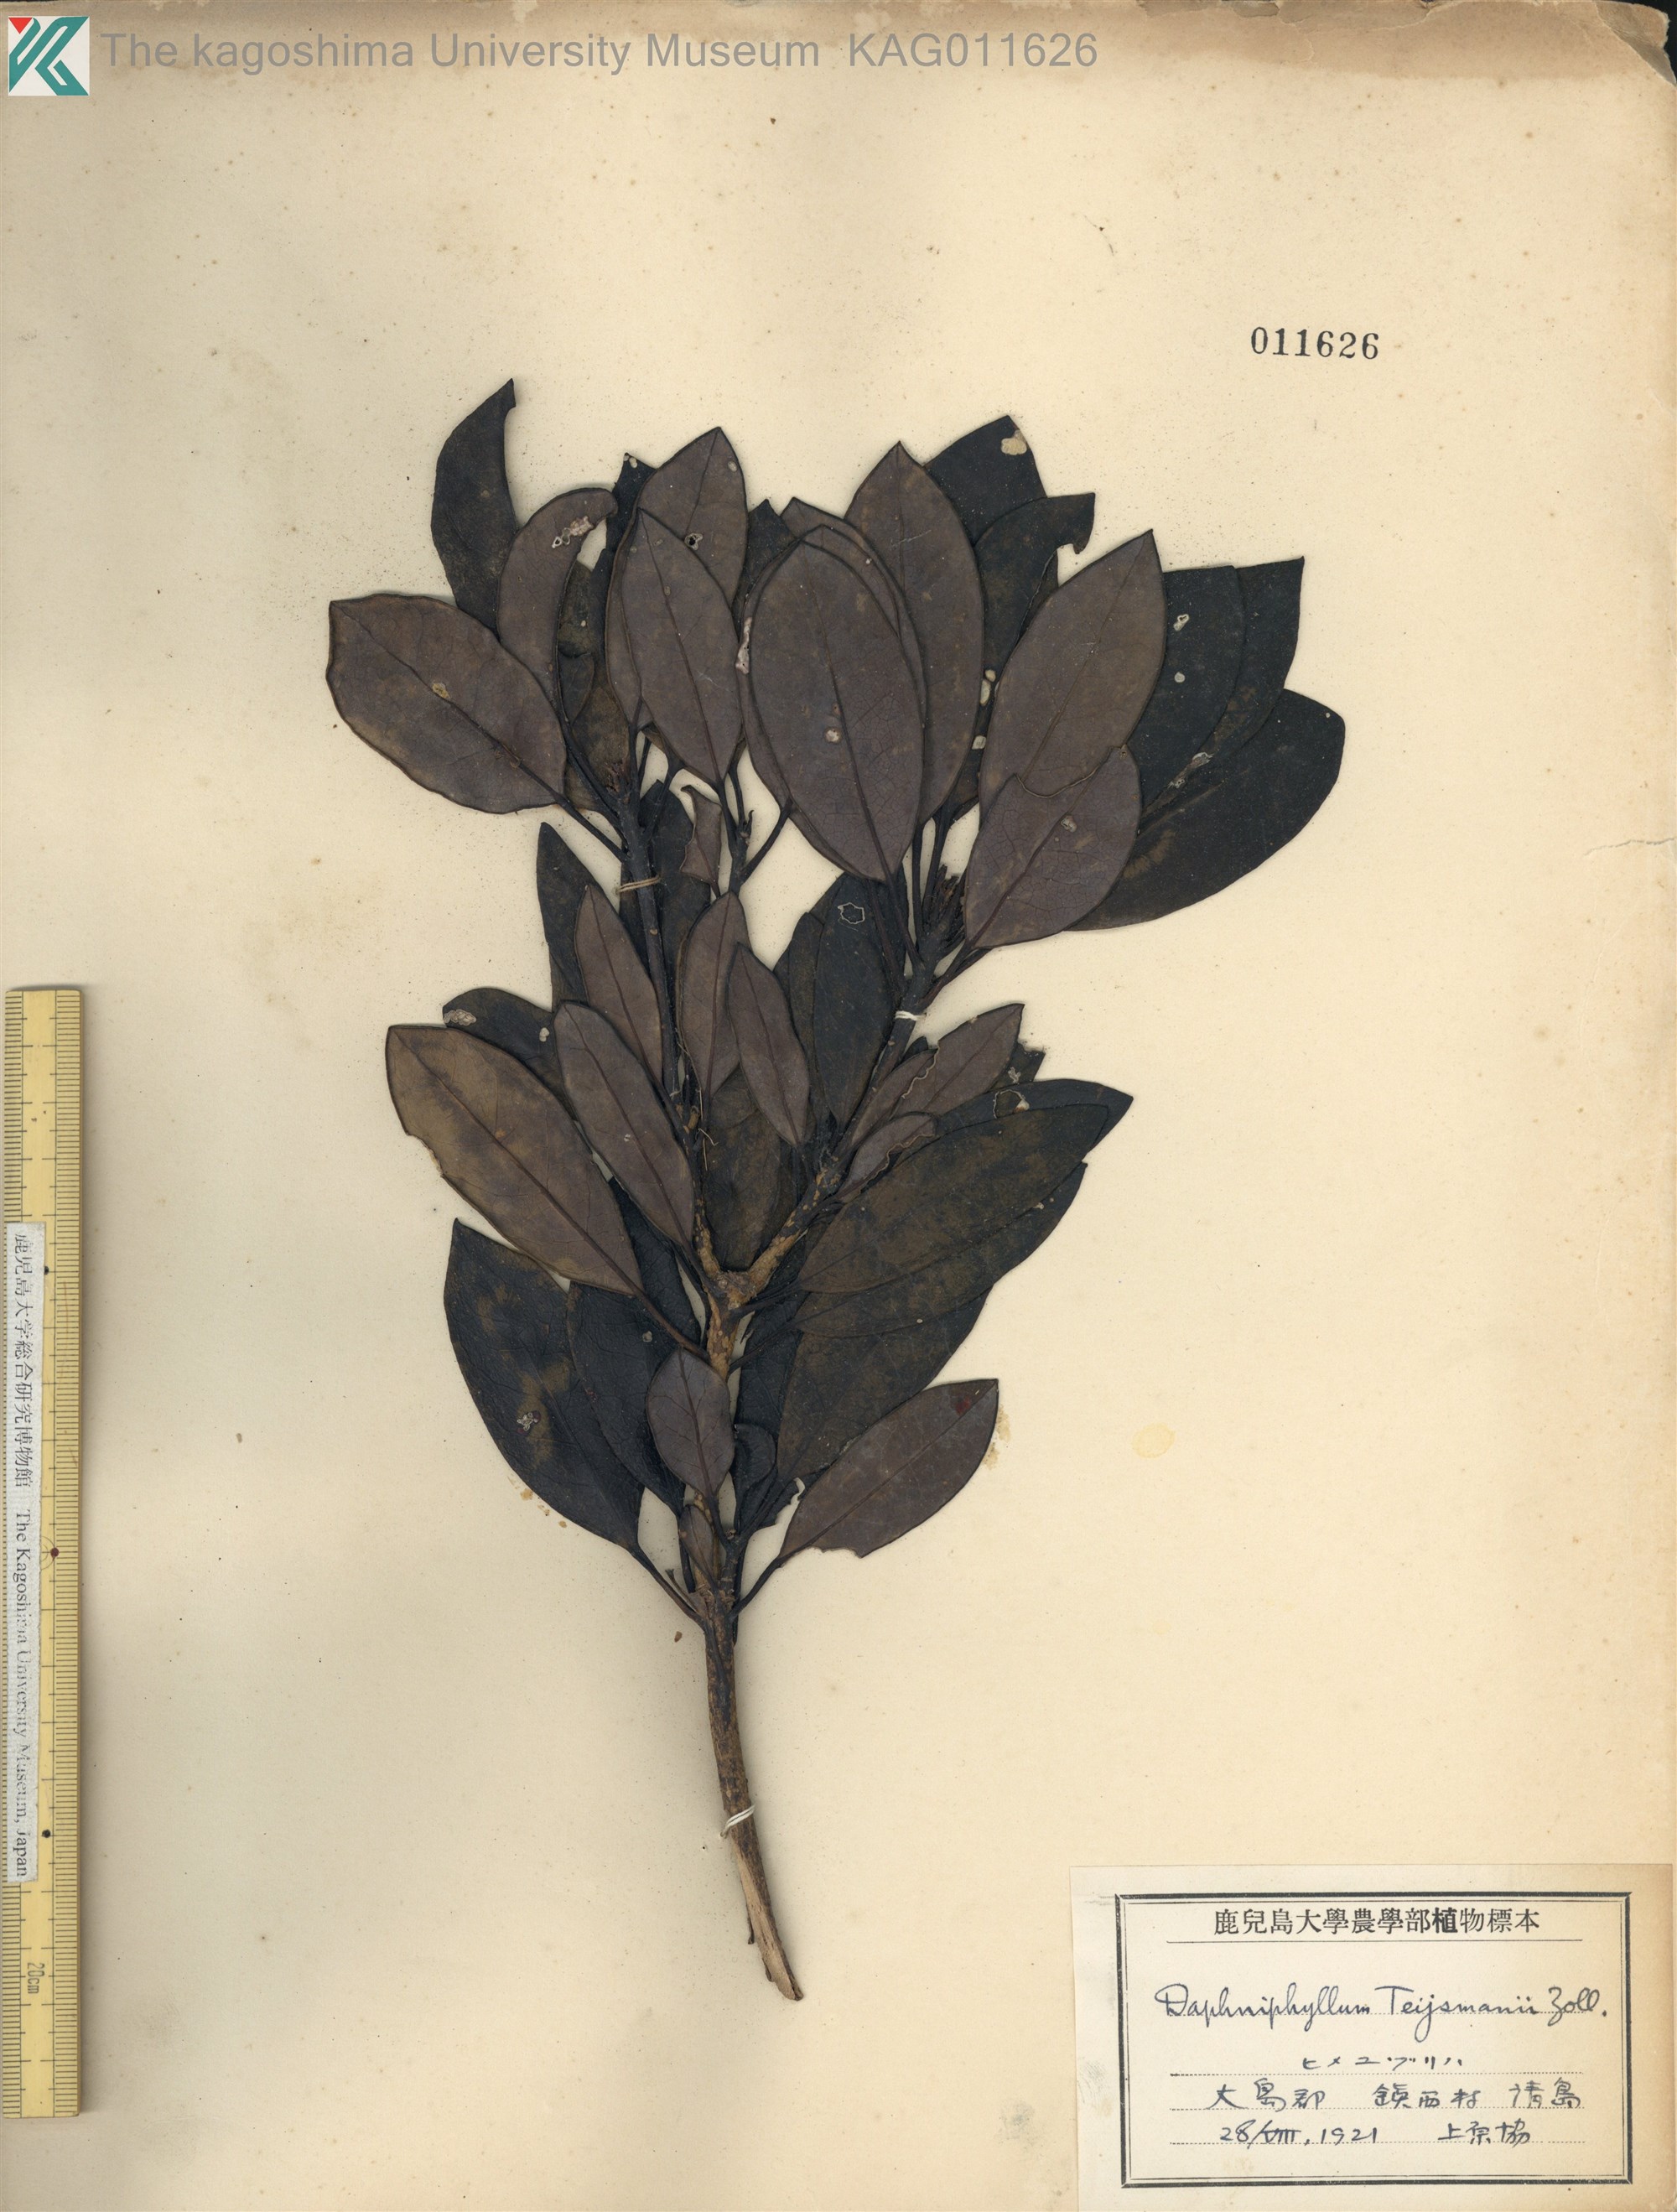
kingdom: Plantae
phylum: Tracheophyta
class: Magnoliopsida
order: Saxifragales
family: Daphniphyllaceae
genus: Daphniphyllum
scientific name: Daphniphyllum teijsmannii
